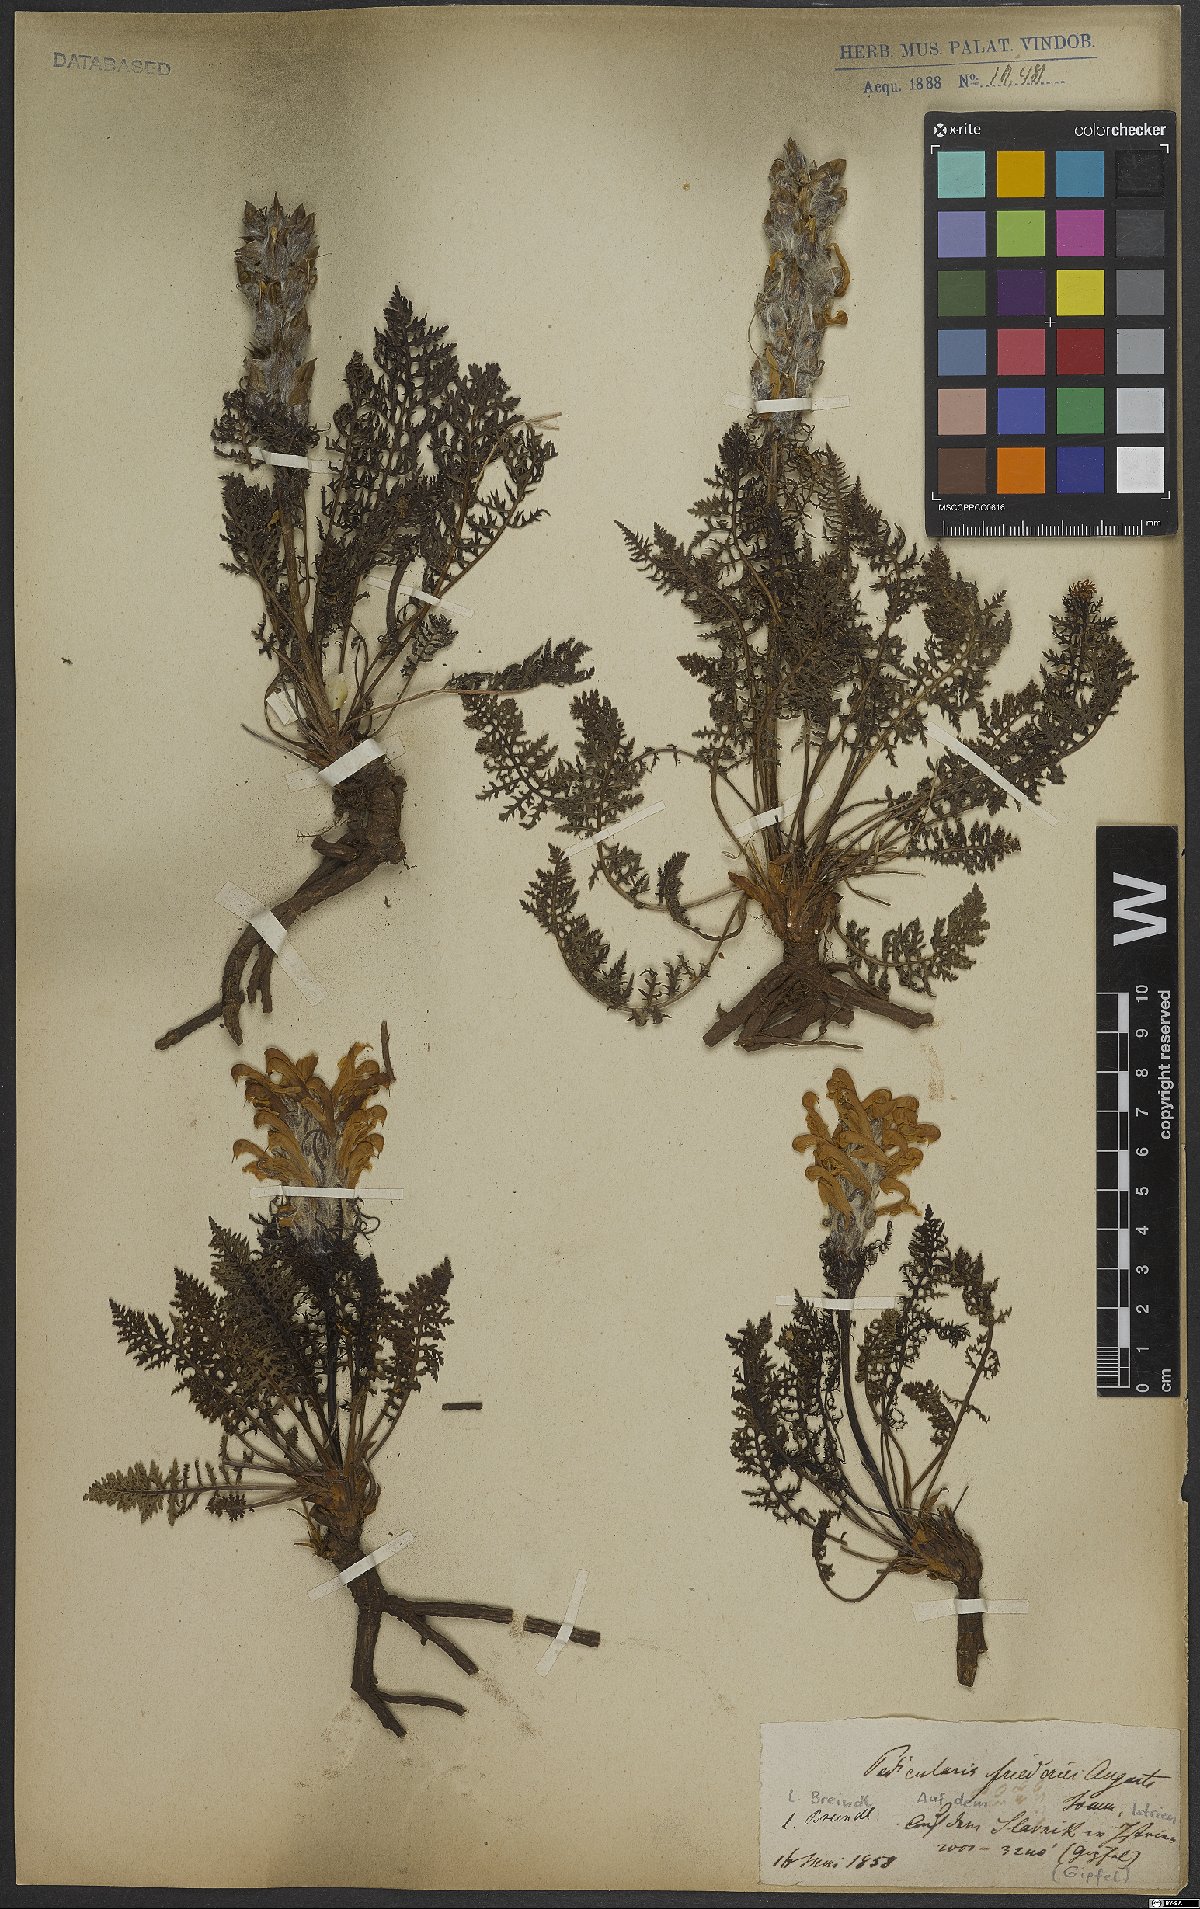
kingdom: Plantae
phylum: Tracheophyta
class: Magnoliopsida
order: Lamiales
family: Orobanchaceae
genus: Pedicularis
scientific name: Pedicularis friderici-augusti
